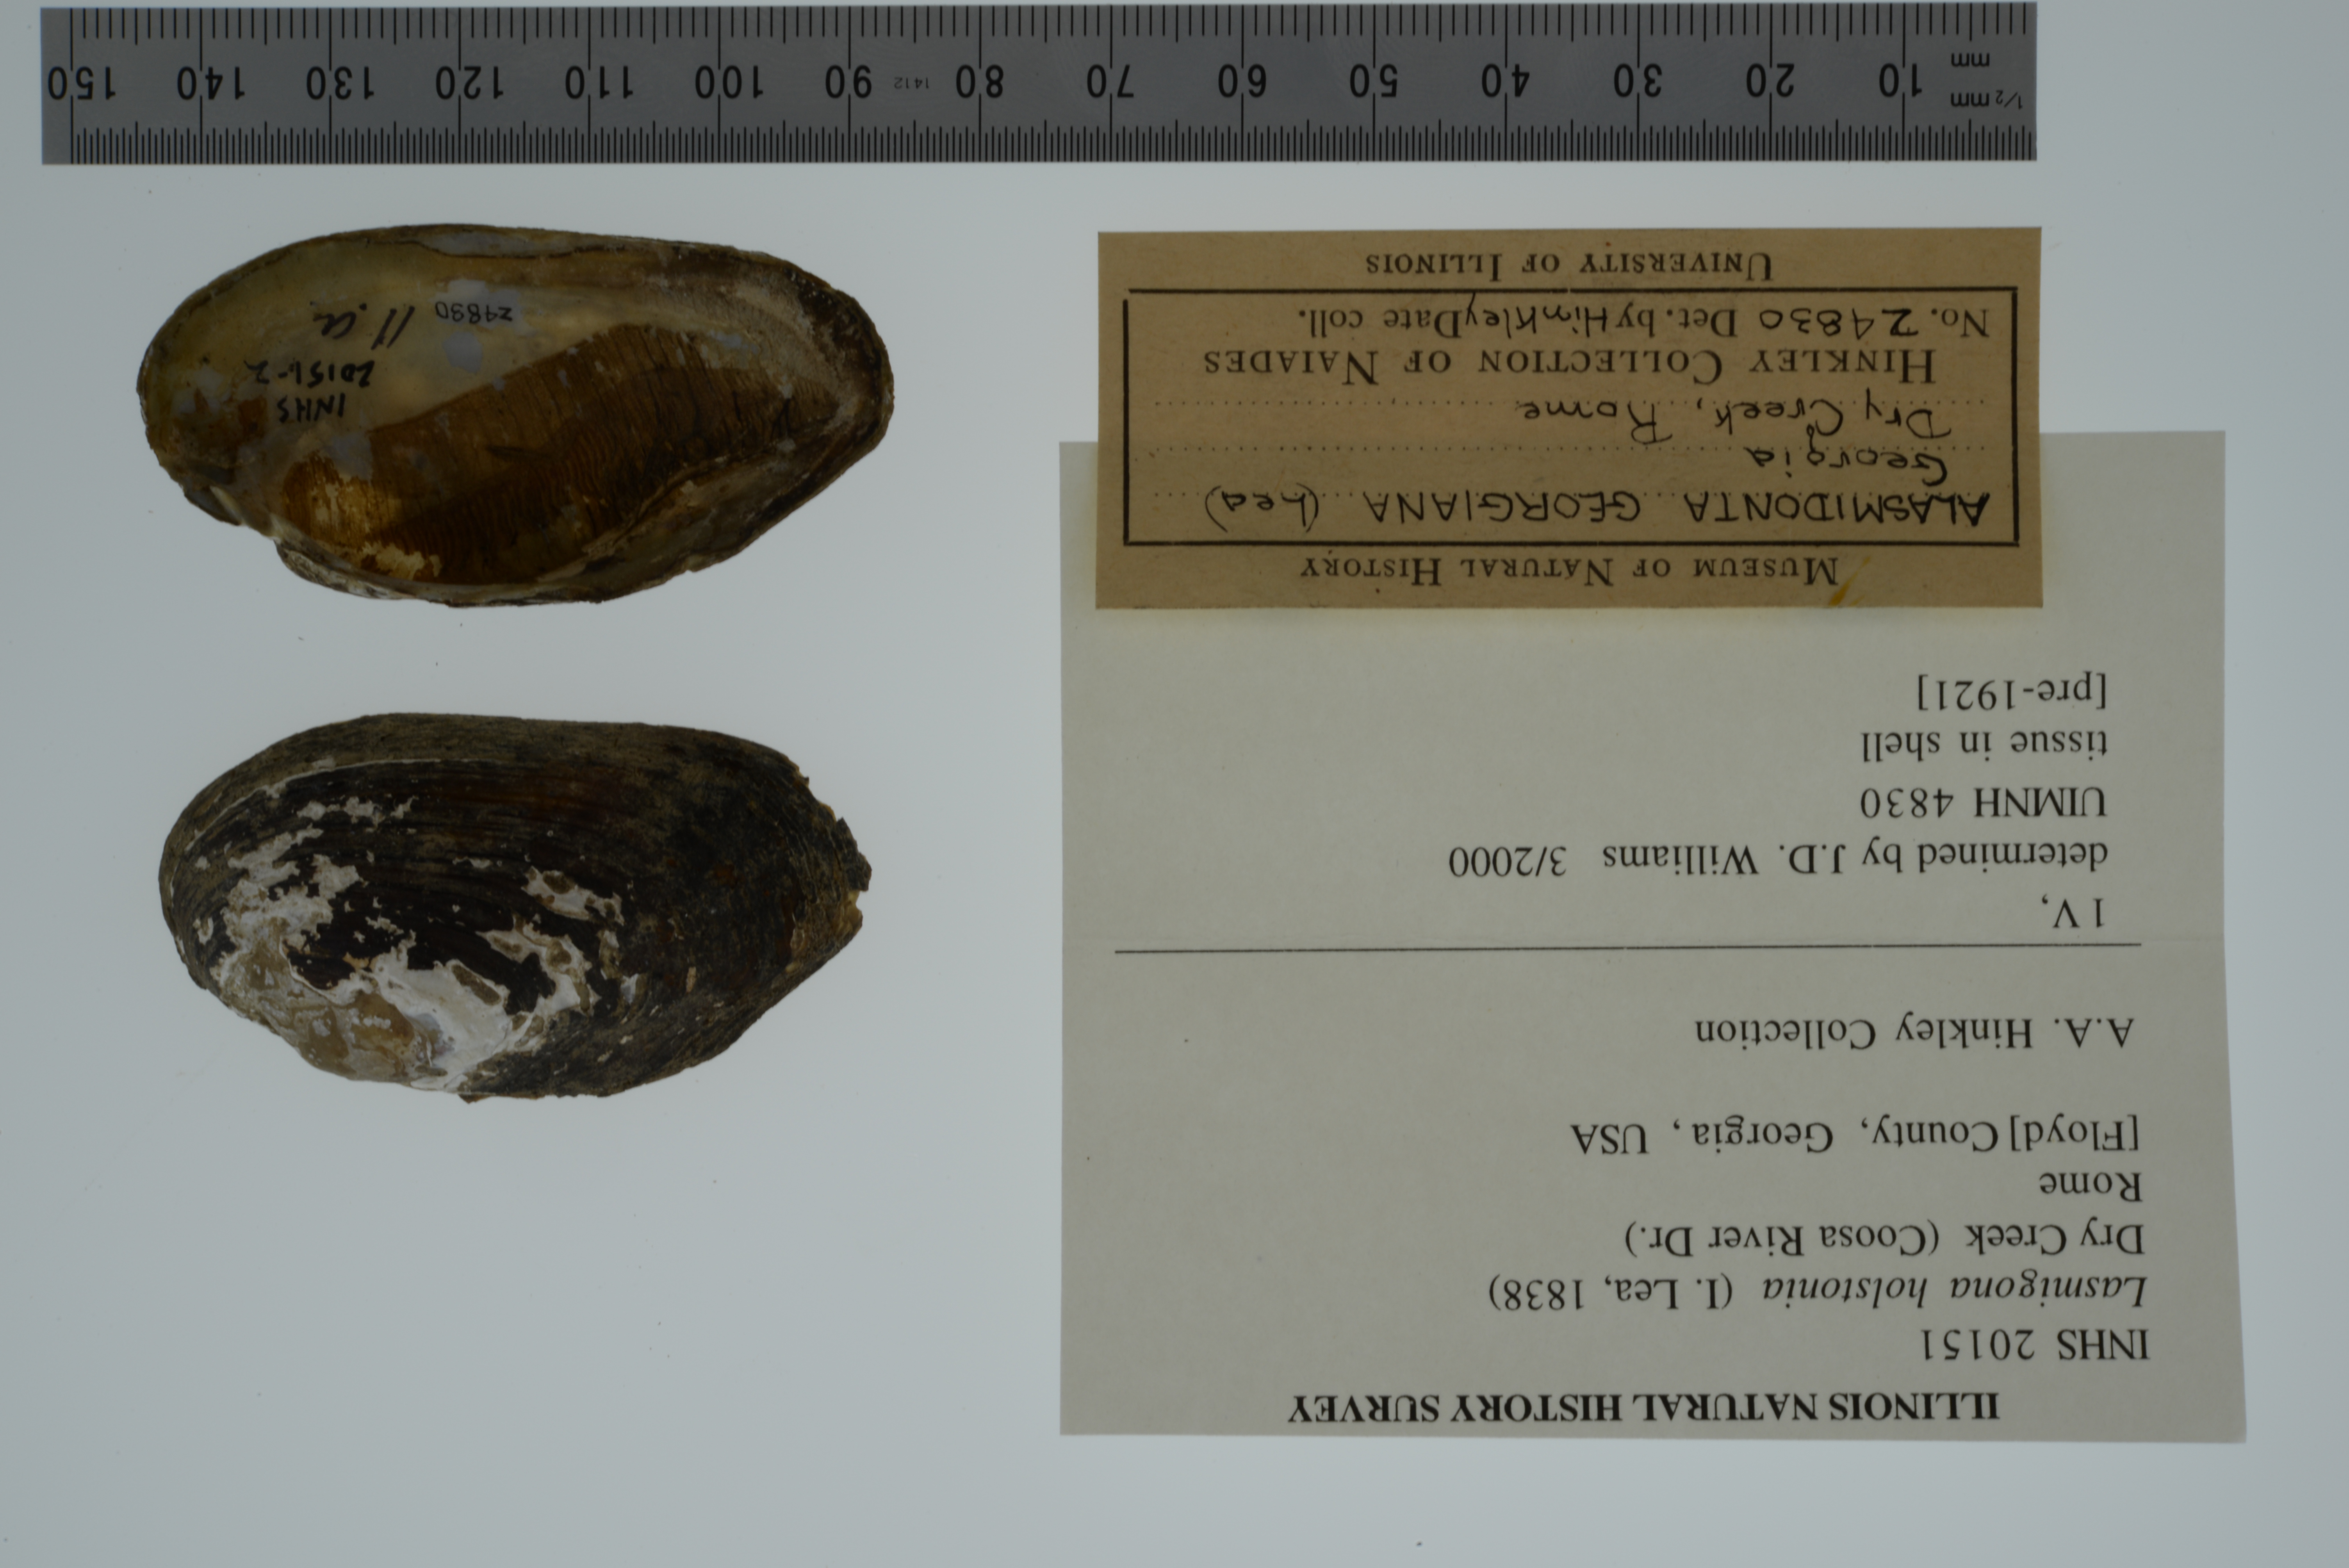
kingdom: Animalia
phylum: Mollusca
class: Bivalvia
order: Unionida
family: Unionidae
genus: Lasmigona
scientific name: Lasmigona holstonia
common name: Tennessee heelsplitter
